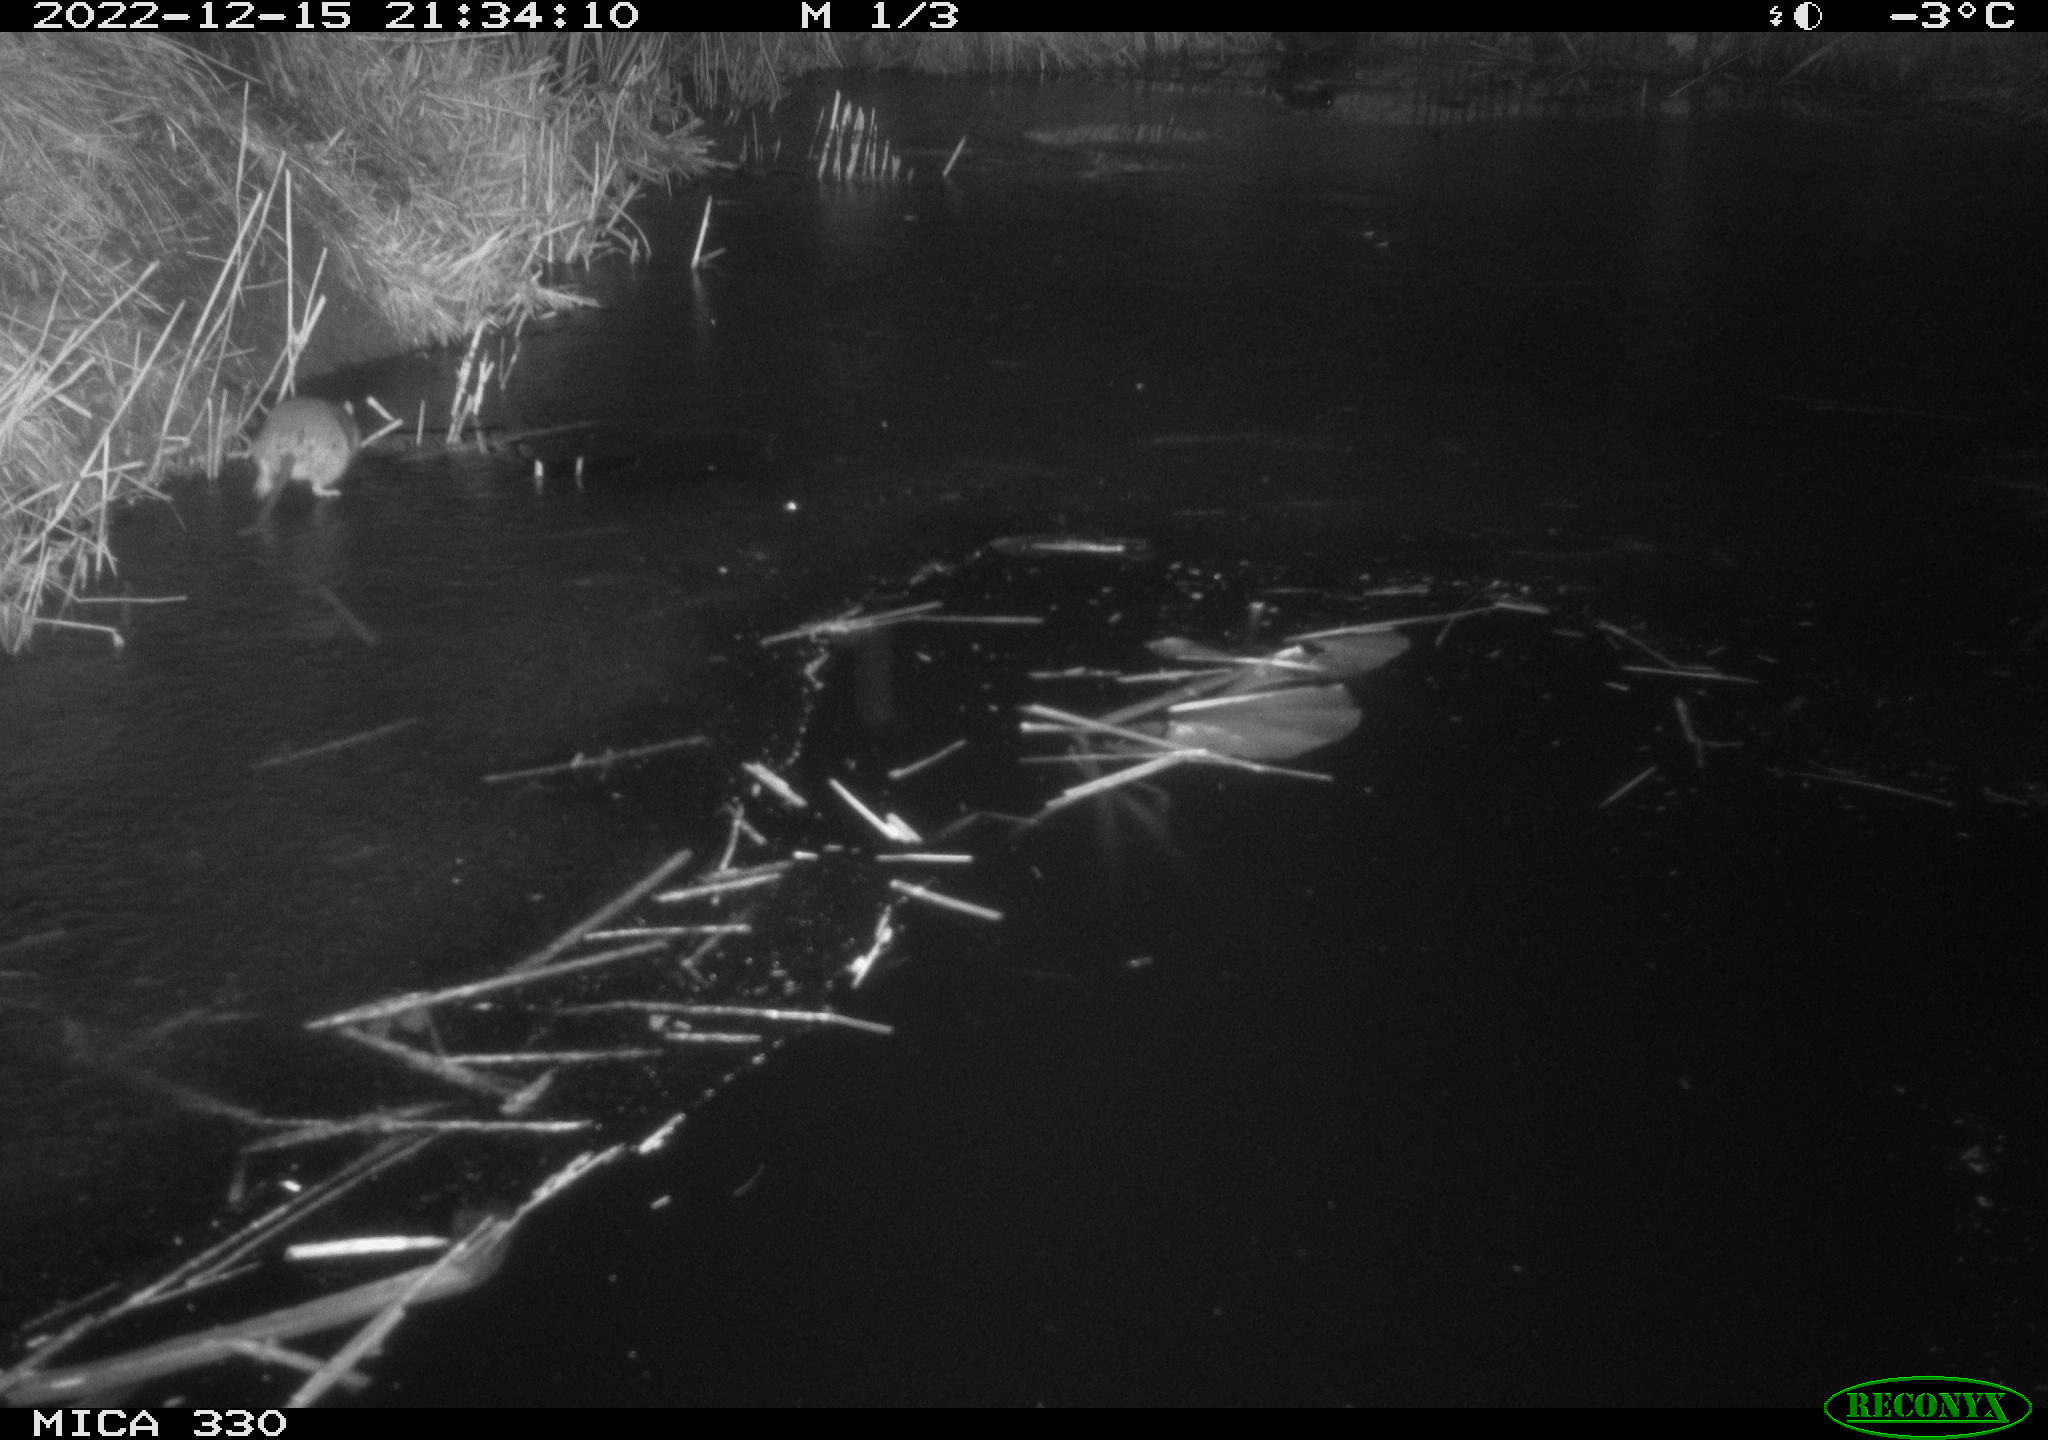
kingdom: Animalia
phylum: Chordata
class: Mammalia
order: Rodentia
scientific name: Rodentia
